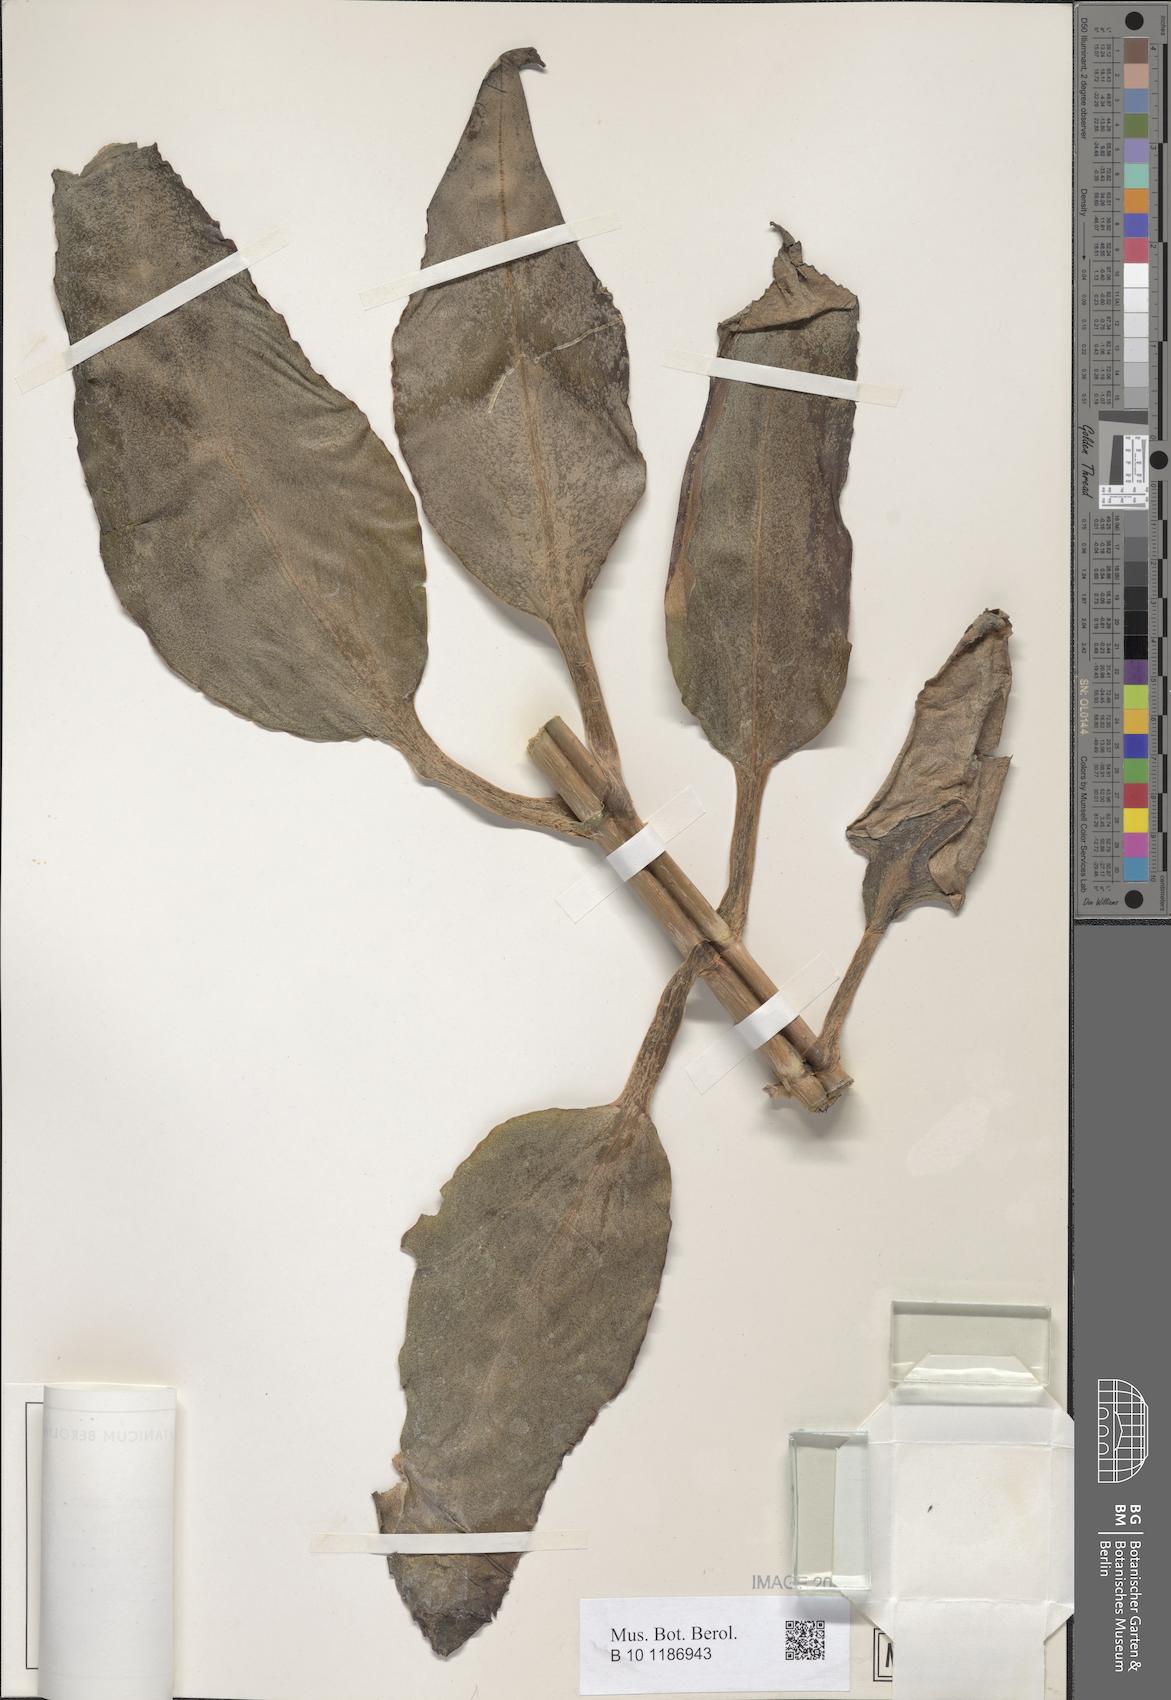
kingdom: Plantae
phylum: Tracheophyta
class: Magnoliopsida
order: Saxifragales
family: Crassulaceae
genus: Kalanchoe
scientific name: Kalanchoe integra
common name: Neverdie
